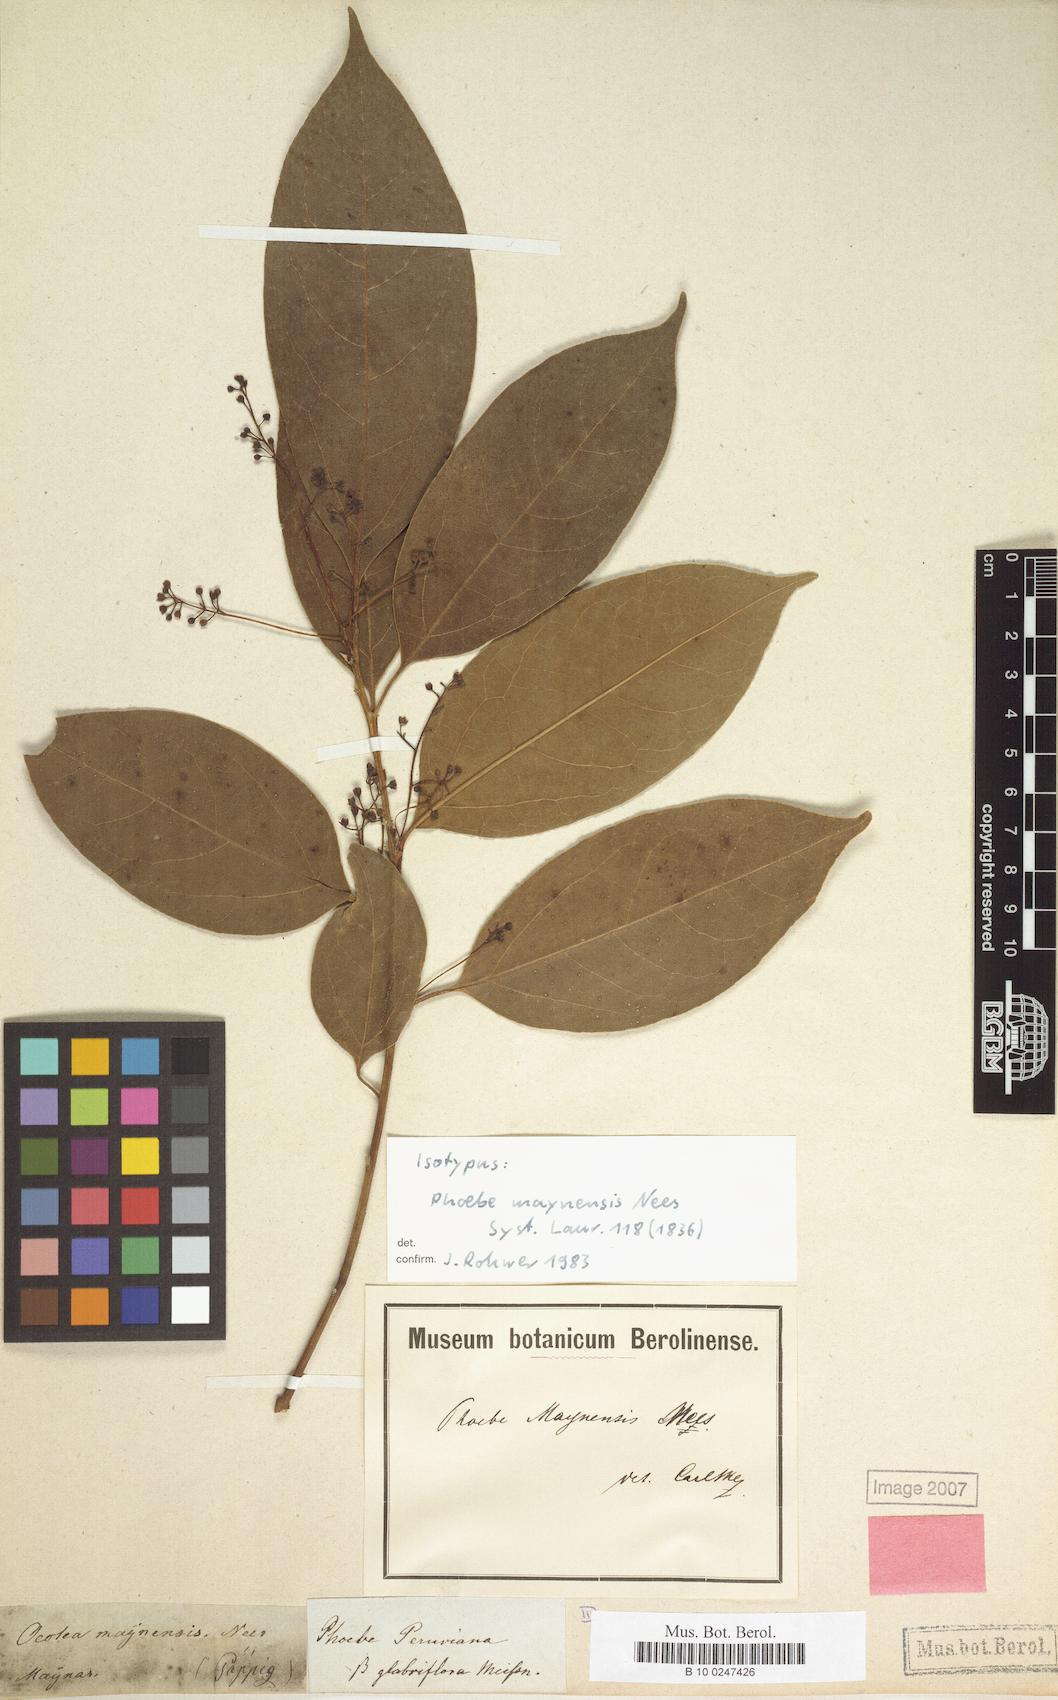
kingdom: Plantae
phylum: Tracheophyta
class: Magnoliopsida
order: Laurales
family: Lauraceae
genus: Aiouea
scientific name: Aiouea montana
